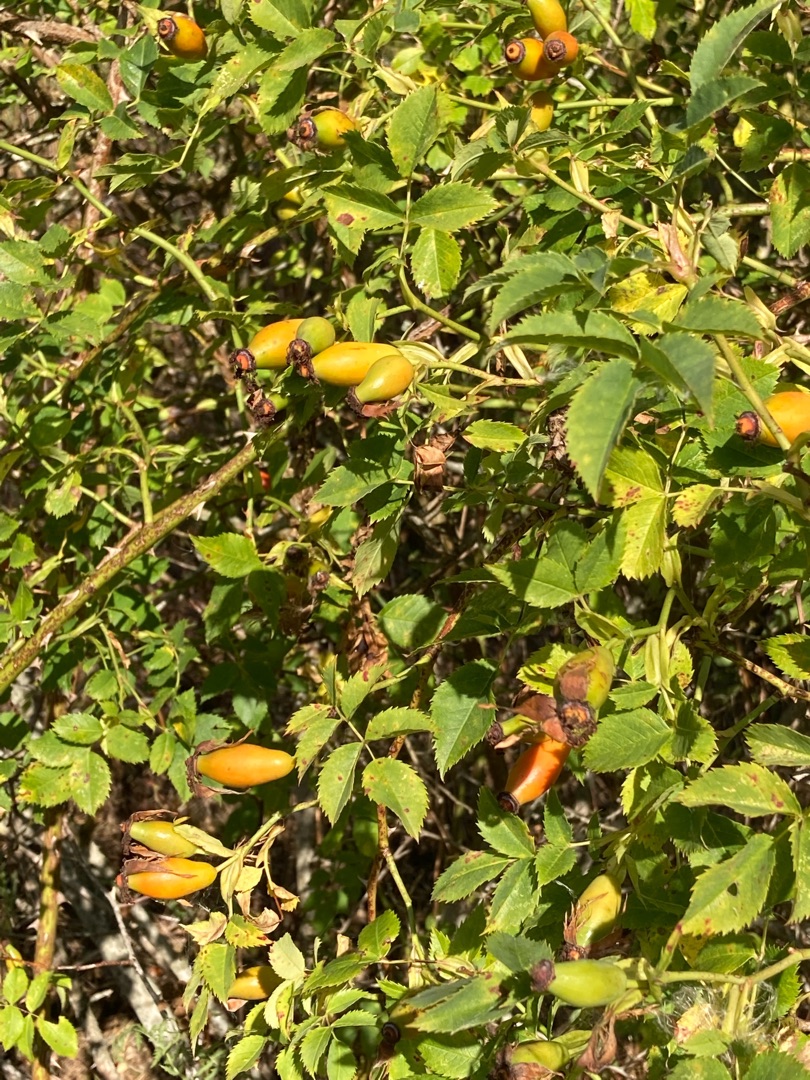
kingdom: Plantae
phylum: Tracheophyta
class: Magnoliopsida
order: Rosales
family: Rosaceae
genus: Rosa
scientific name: Rosa canina
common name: Glat hunde-rose
